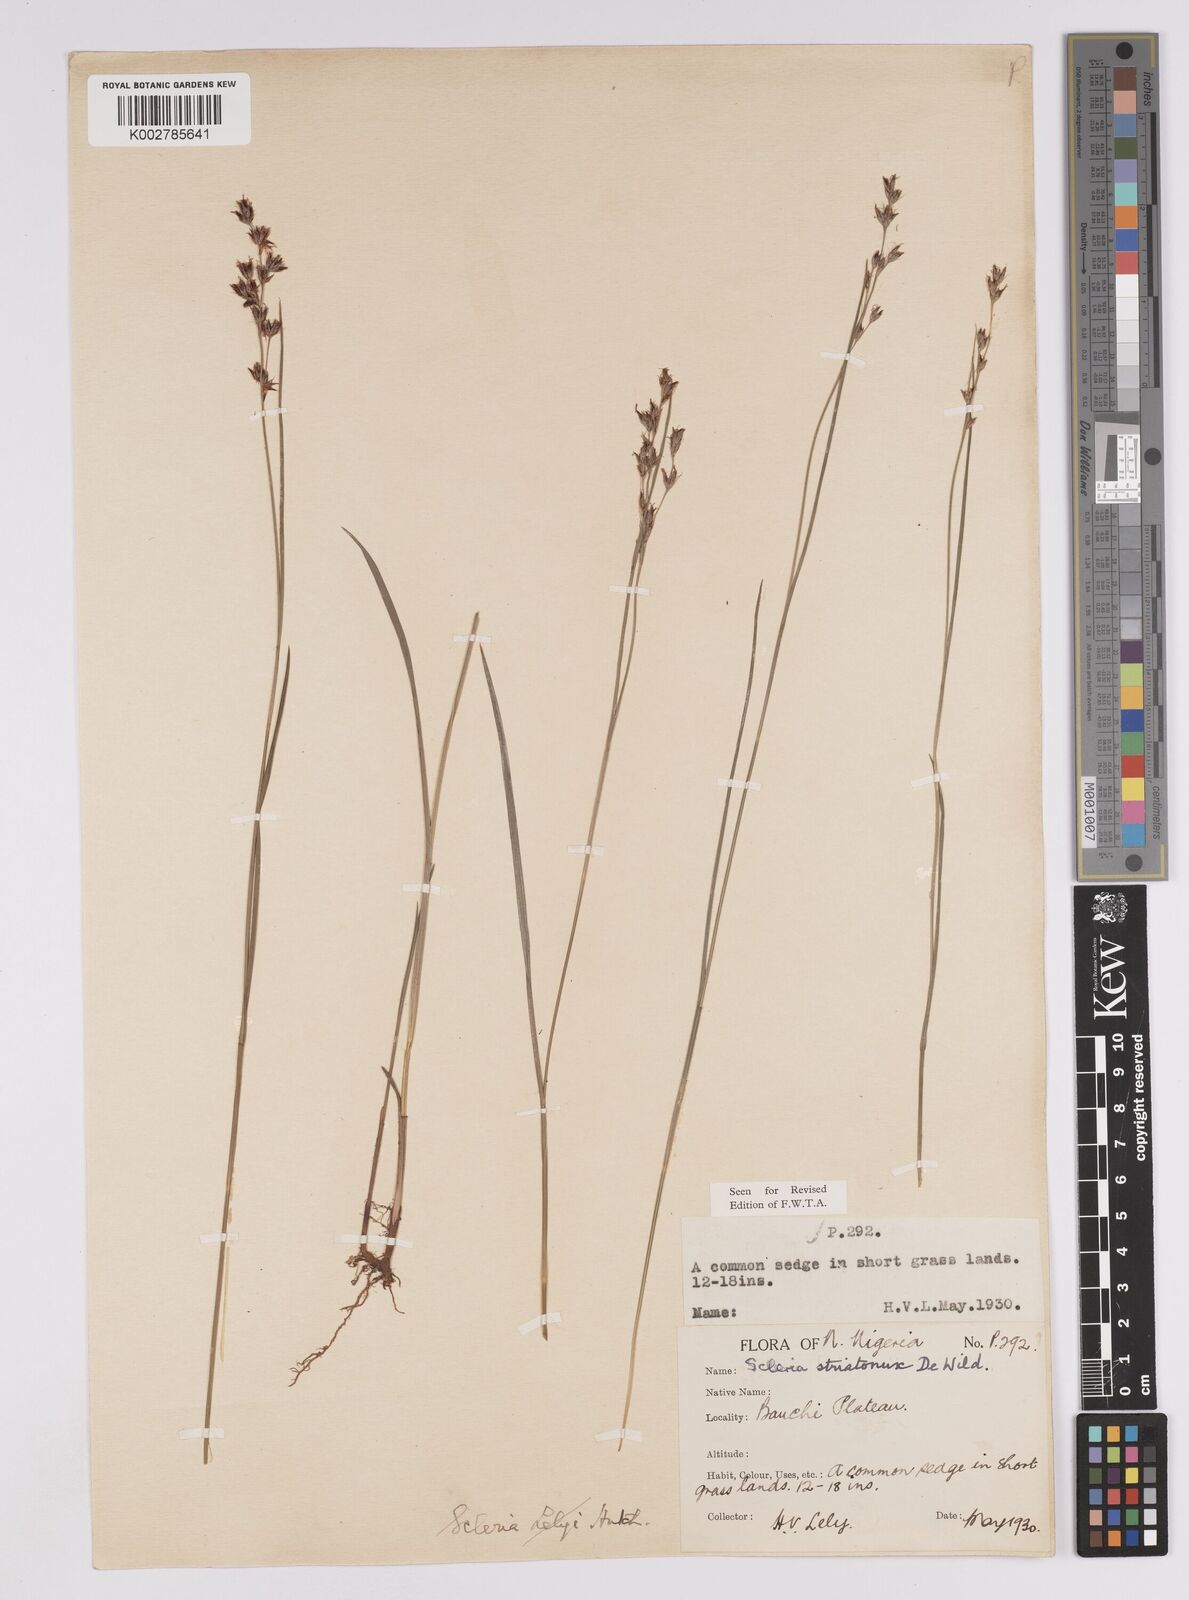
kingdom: Plantae
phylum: Tracheophyta
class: Liliopsida
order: Poales
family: Cyperaceae
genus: Scleria
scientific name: Scleria woodii
